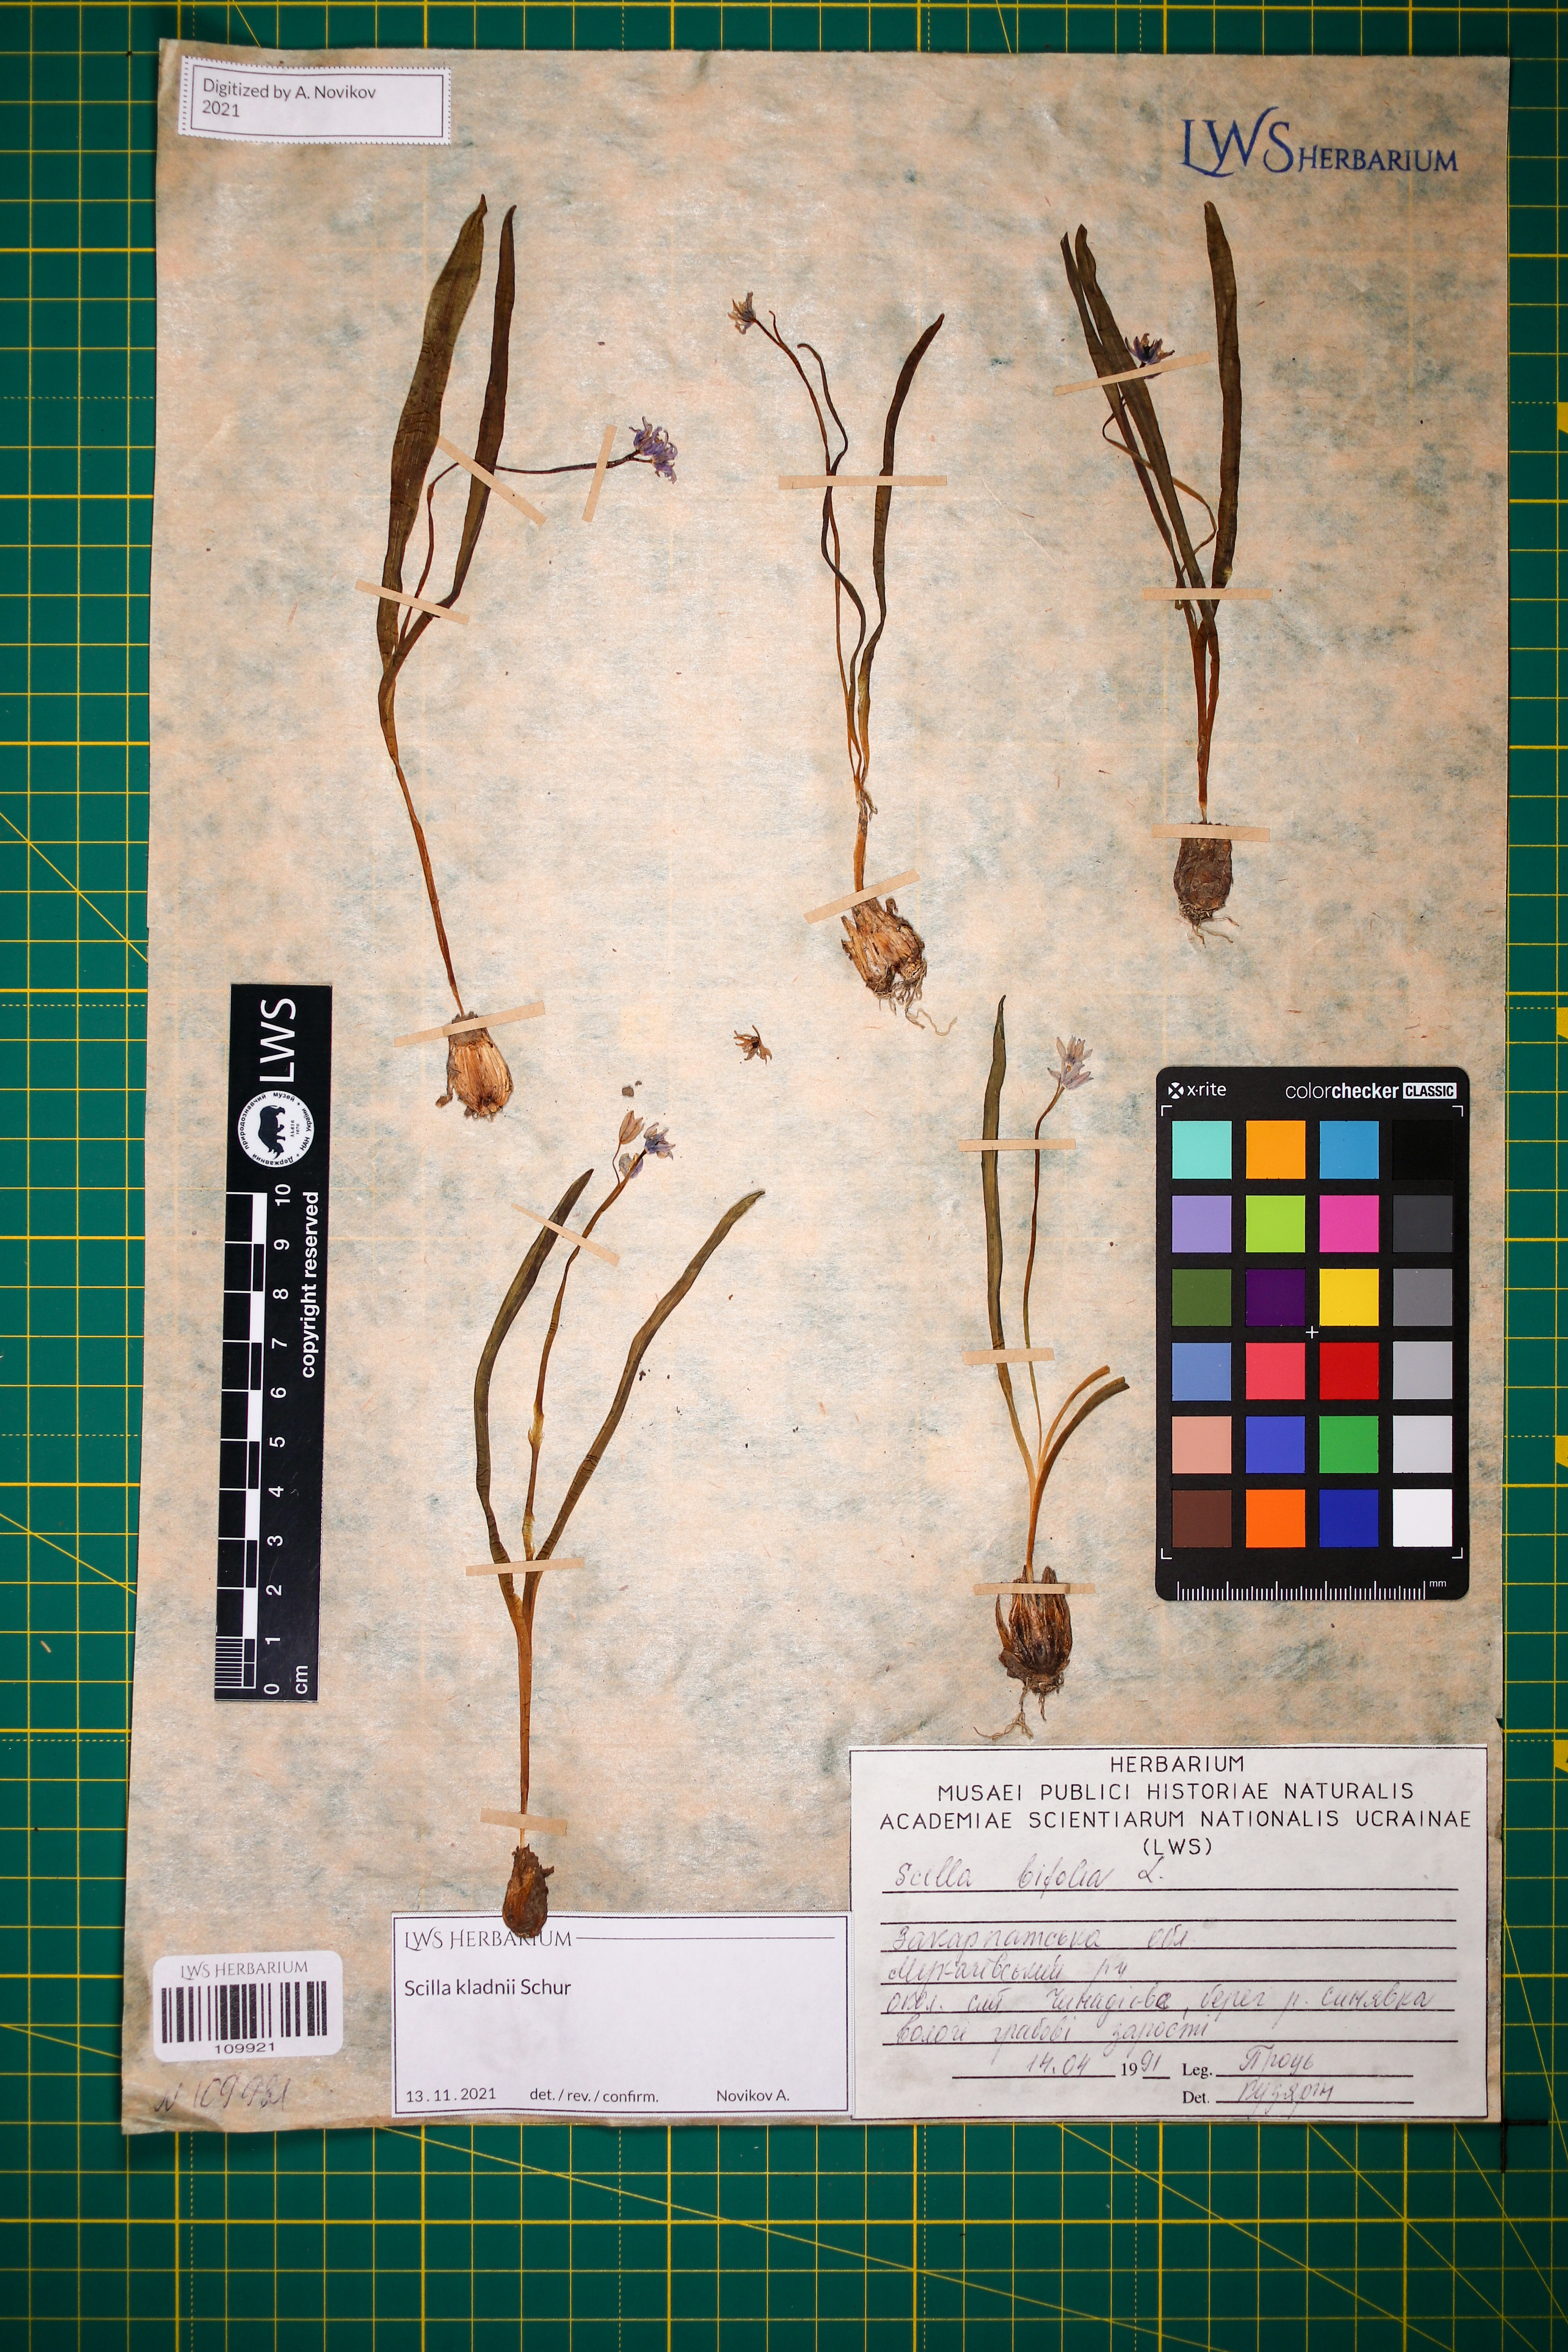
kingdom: Plantae
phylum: Tracheophyta
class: Liliopsida
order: Asparagales
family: Asparagaceae
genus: Scilla
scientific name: Scilla kladnii
